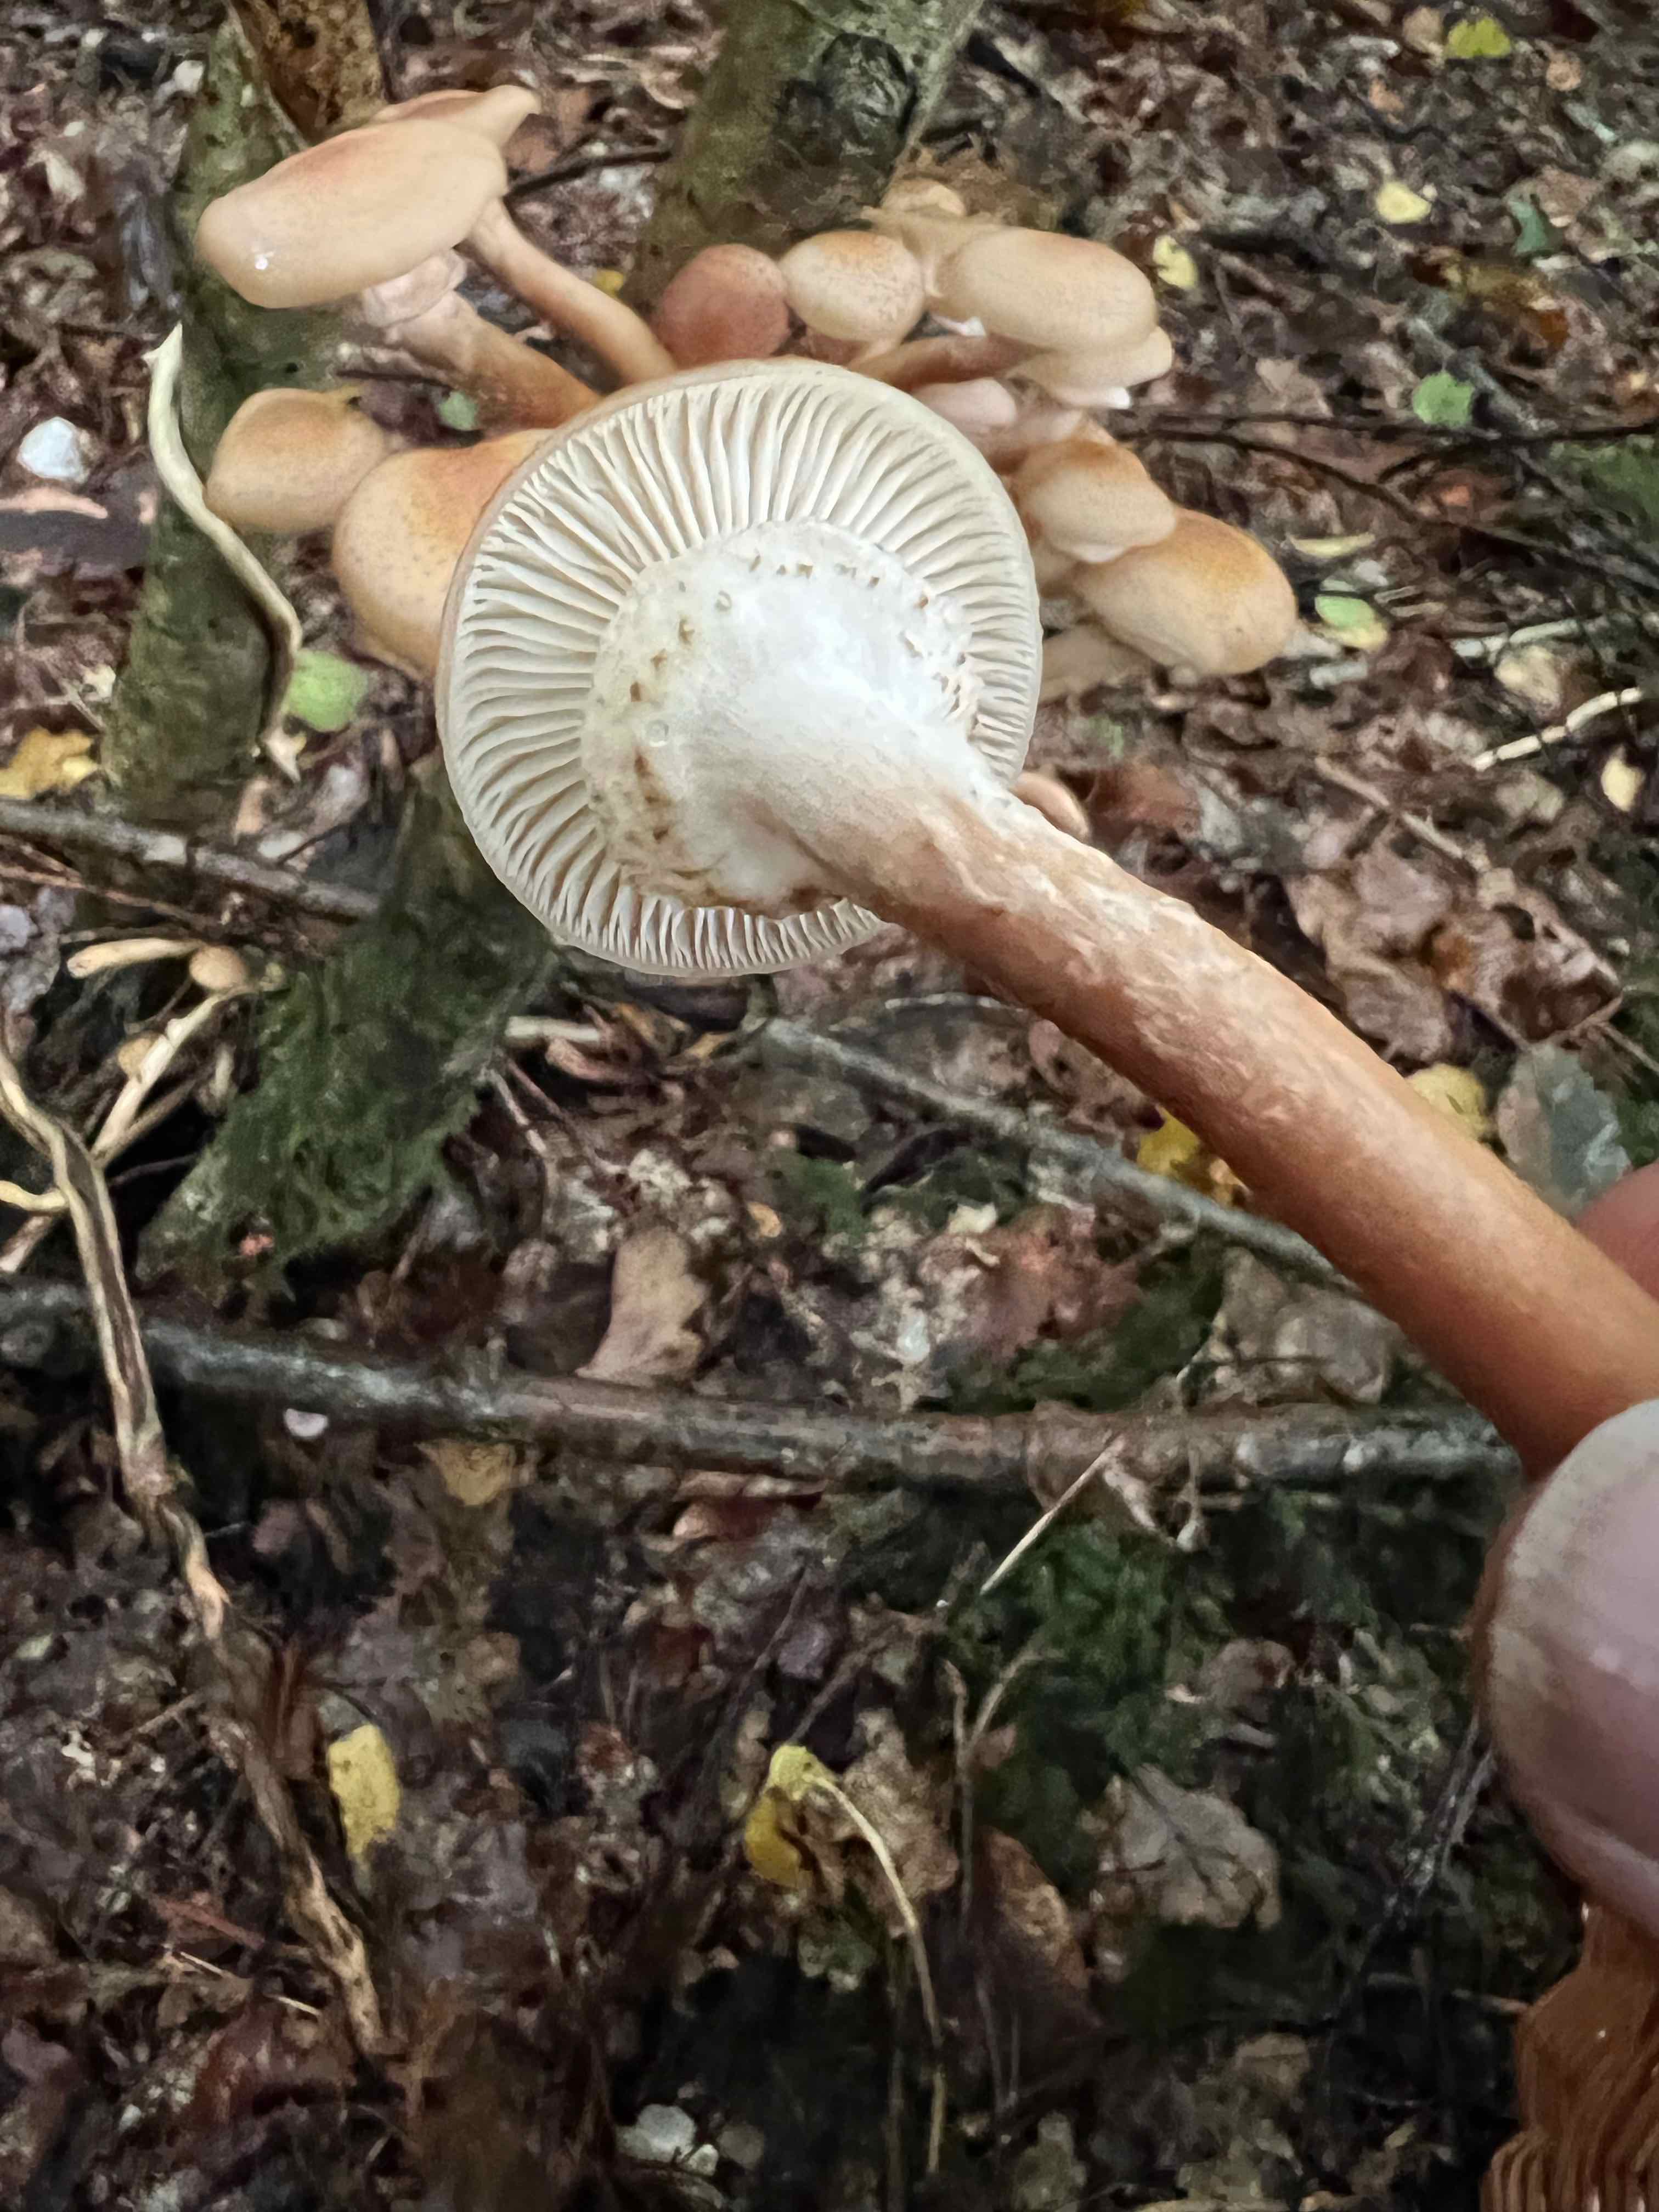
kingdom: Fungi
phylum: Basidiomycota
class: Agaricomycetes
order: Agaricales
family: Physalacriaceae
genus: Armillaria
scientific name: Armillaria lutea
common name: køllestokket honningsvamp
